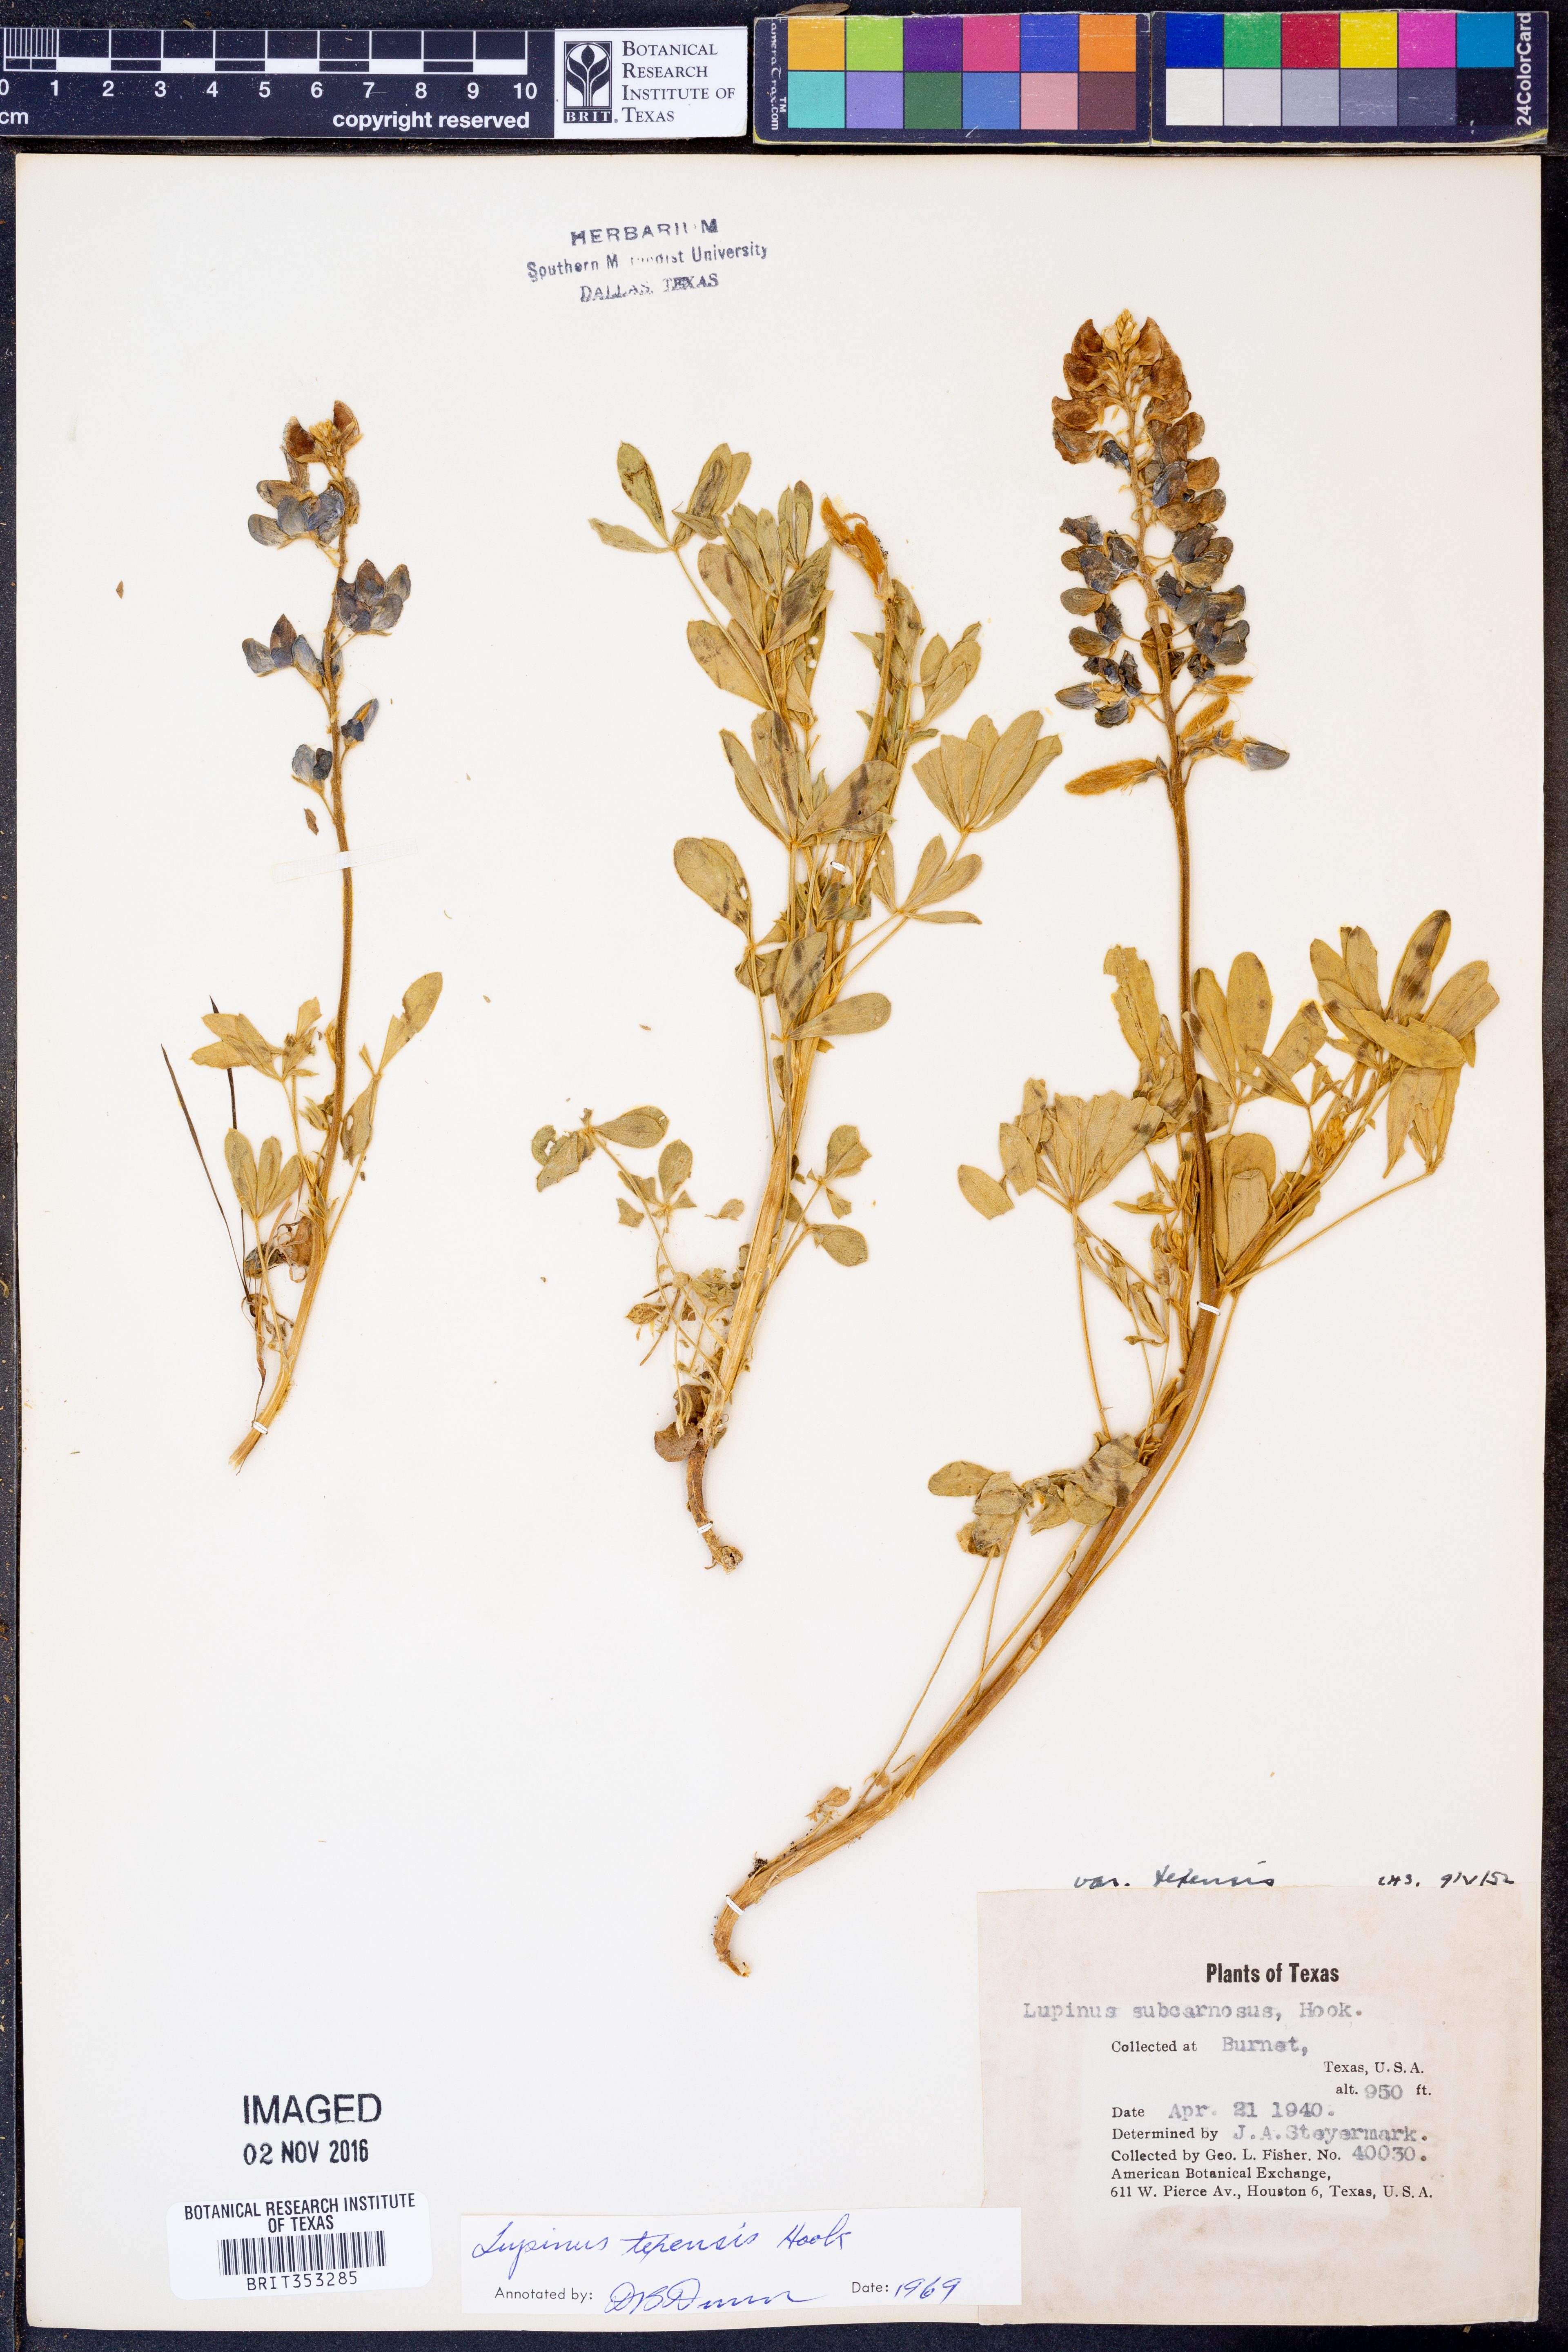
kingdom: Plantae
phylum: Tracheophyta
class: Magnoliopsida
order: Fabales
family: Fabaceae
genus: Lupinus
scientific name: Lupinus texensis
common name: Texas bluebonnet
